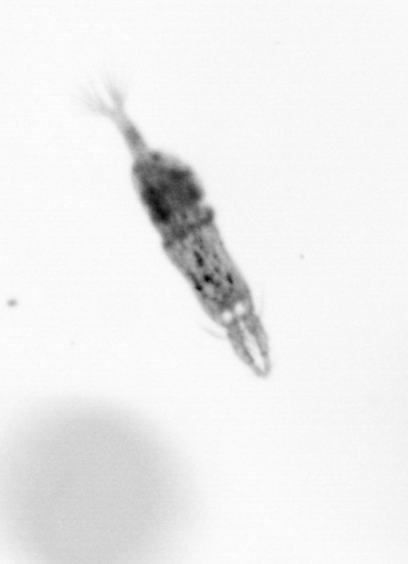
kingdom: Animalia
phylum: Arthropoda
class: Copepoda
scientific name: Copepoda
